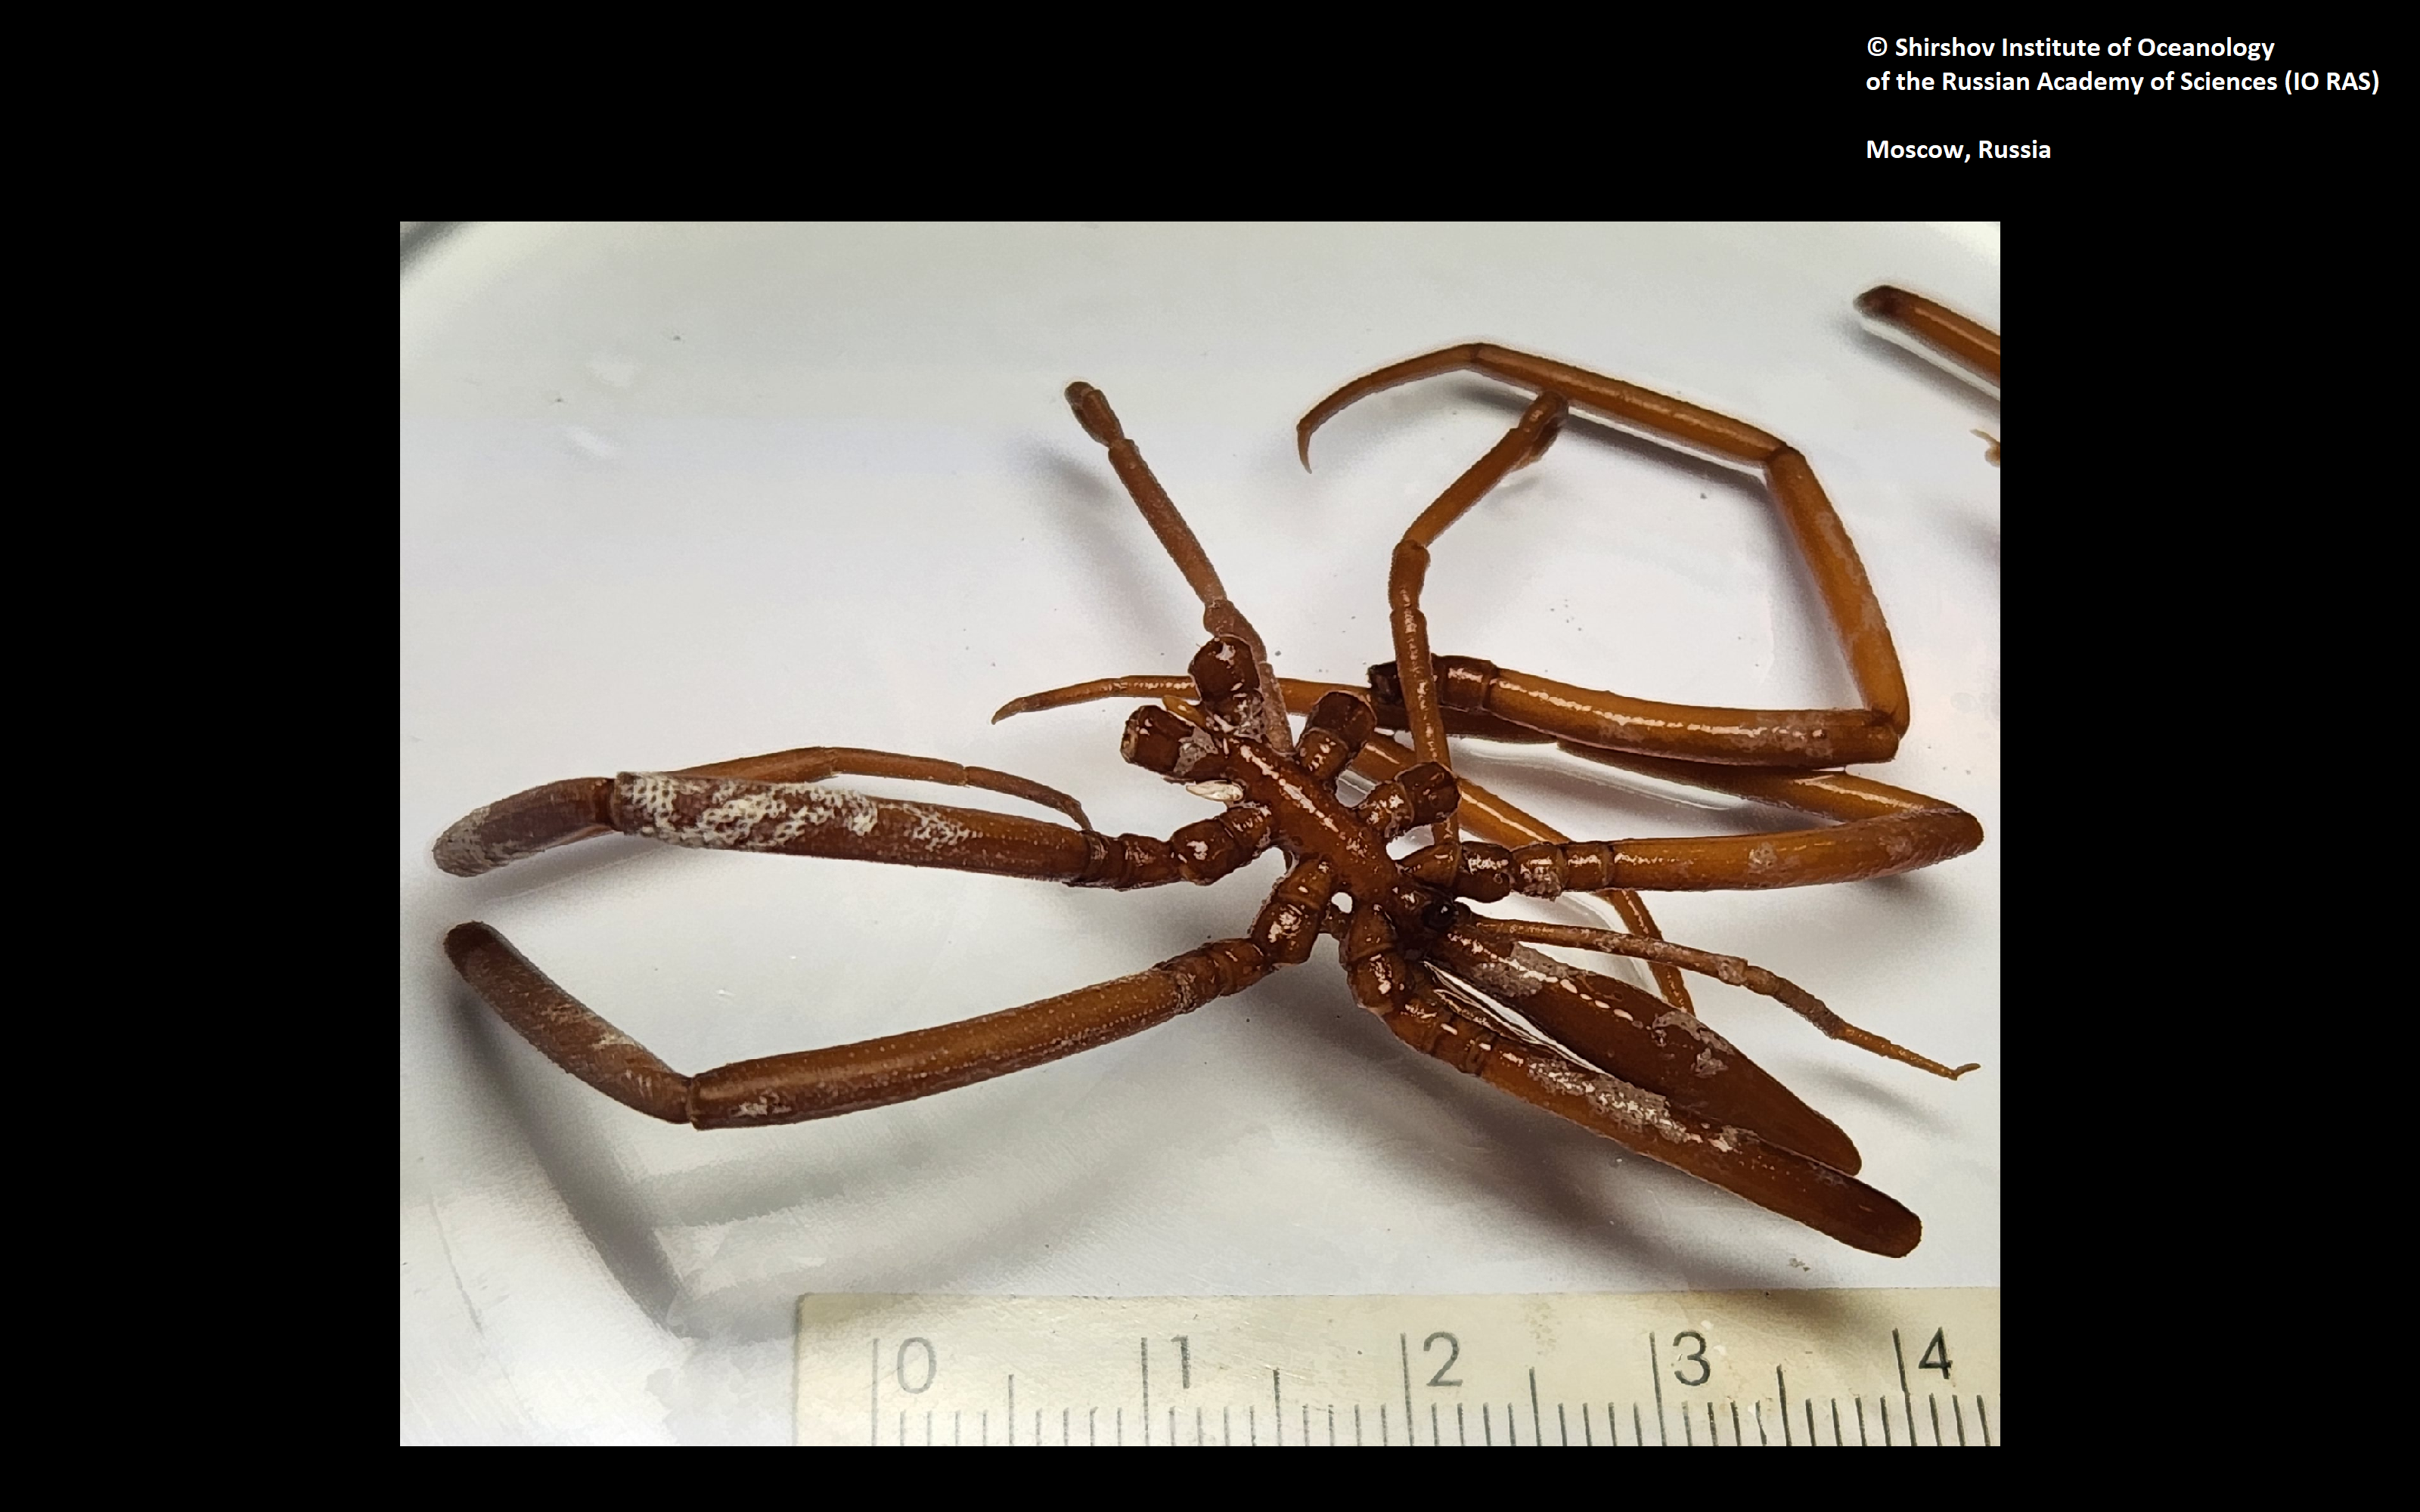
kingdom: Animalia
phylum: Arthropoda
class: Pycnogonida
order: Pantopoda
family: Colossendeidae
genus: Colossendeis
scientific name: Colossendeis enigmatica
